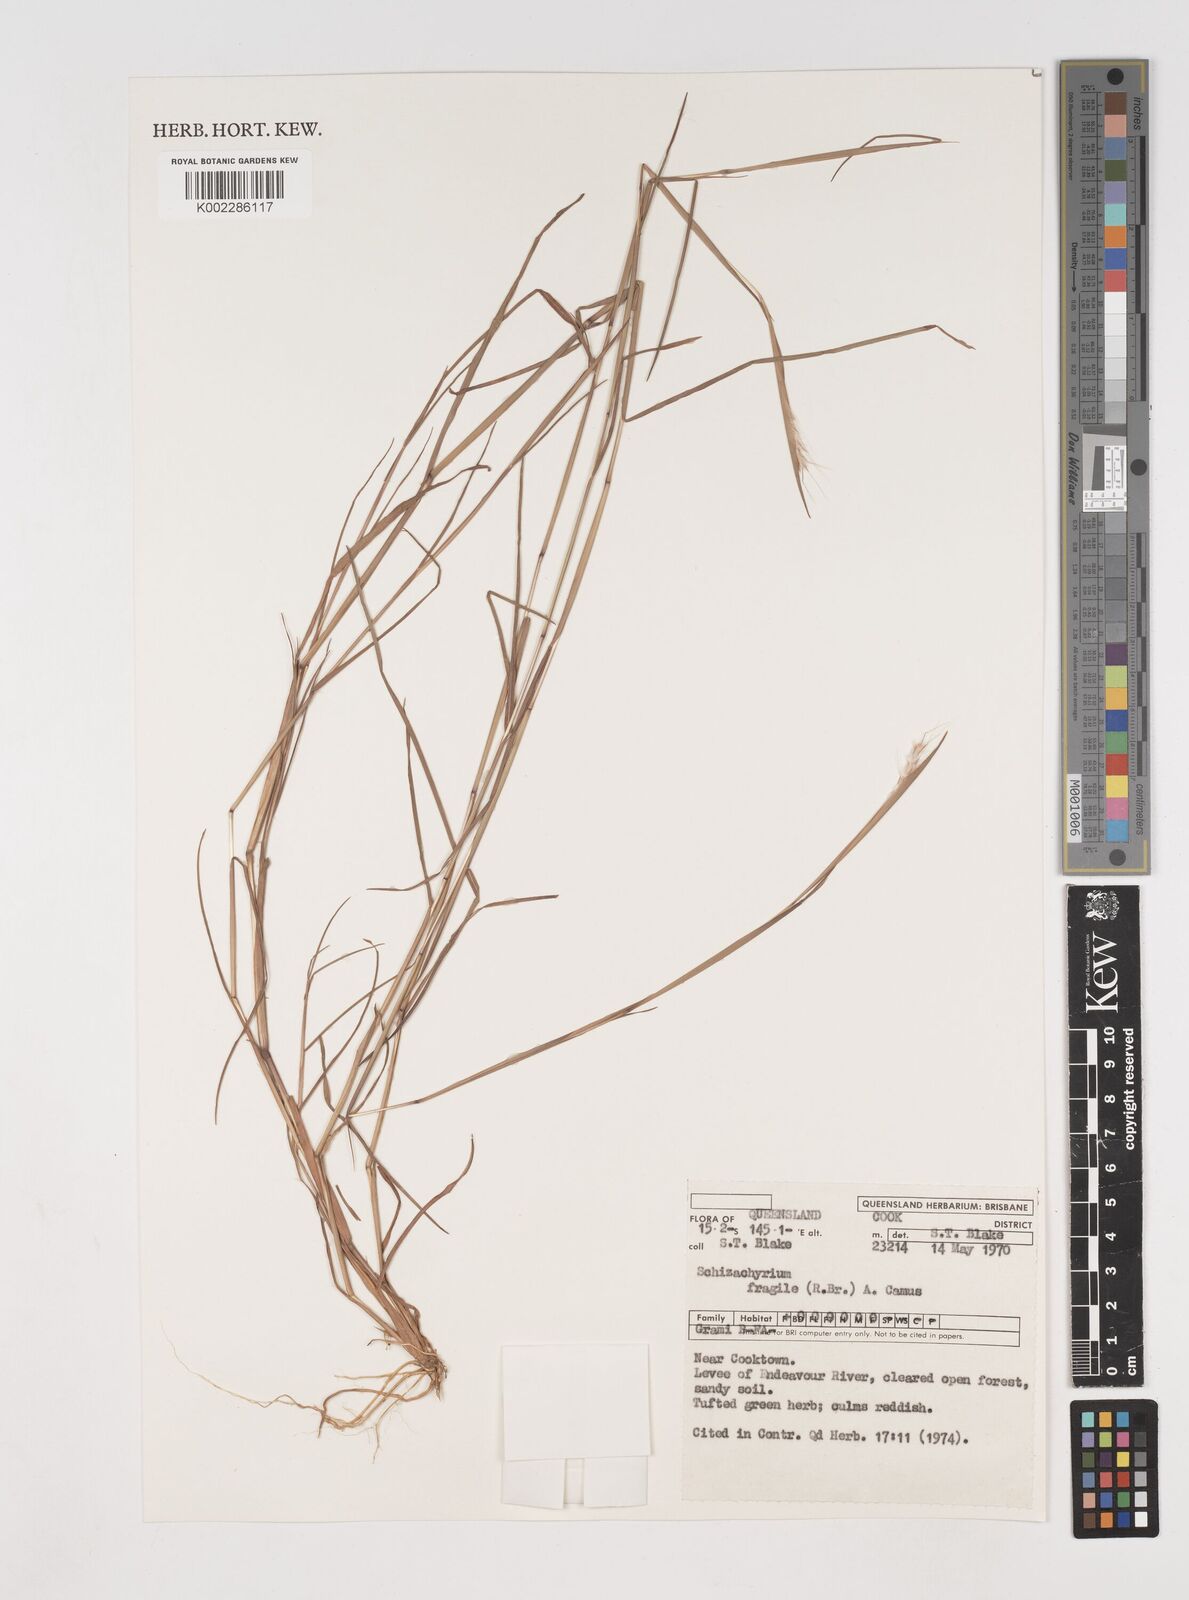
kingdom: Plantae
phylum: Tracheophyta
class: Liliopsida
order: Poales
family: Poaceae
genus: Schizachyrium
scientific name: Schizachyrium fragile
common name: Red spathe grass
